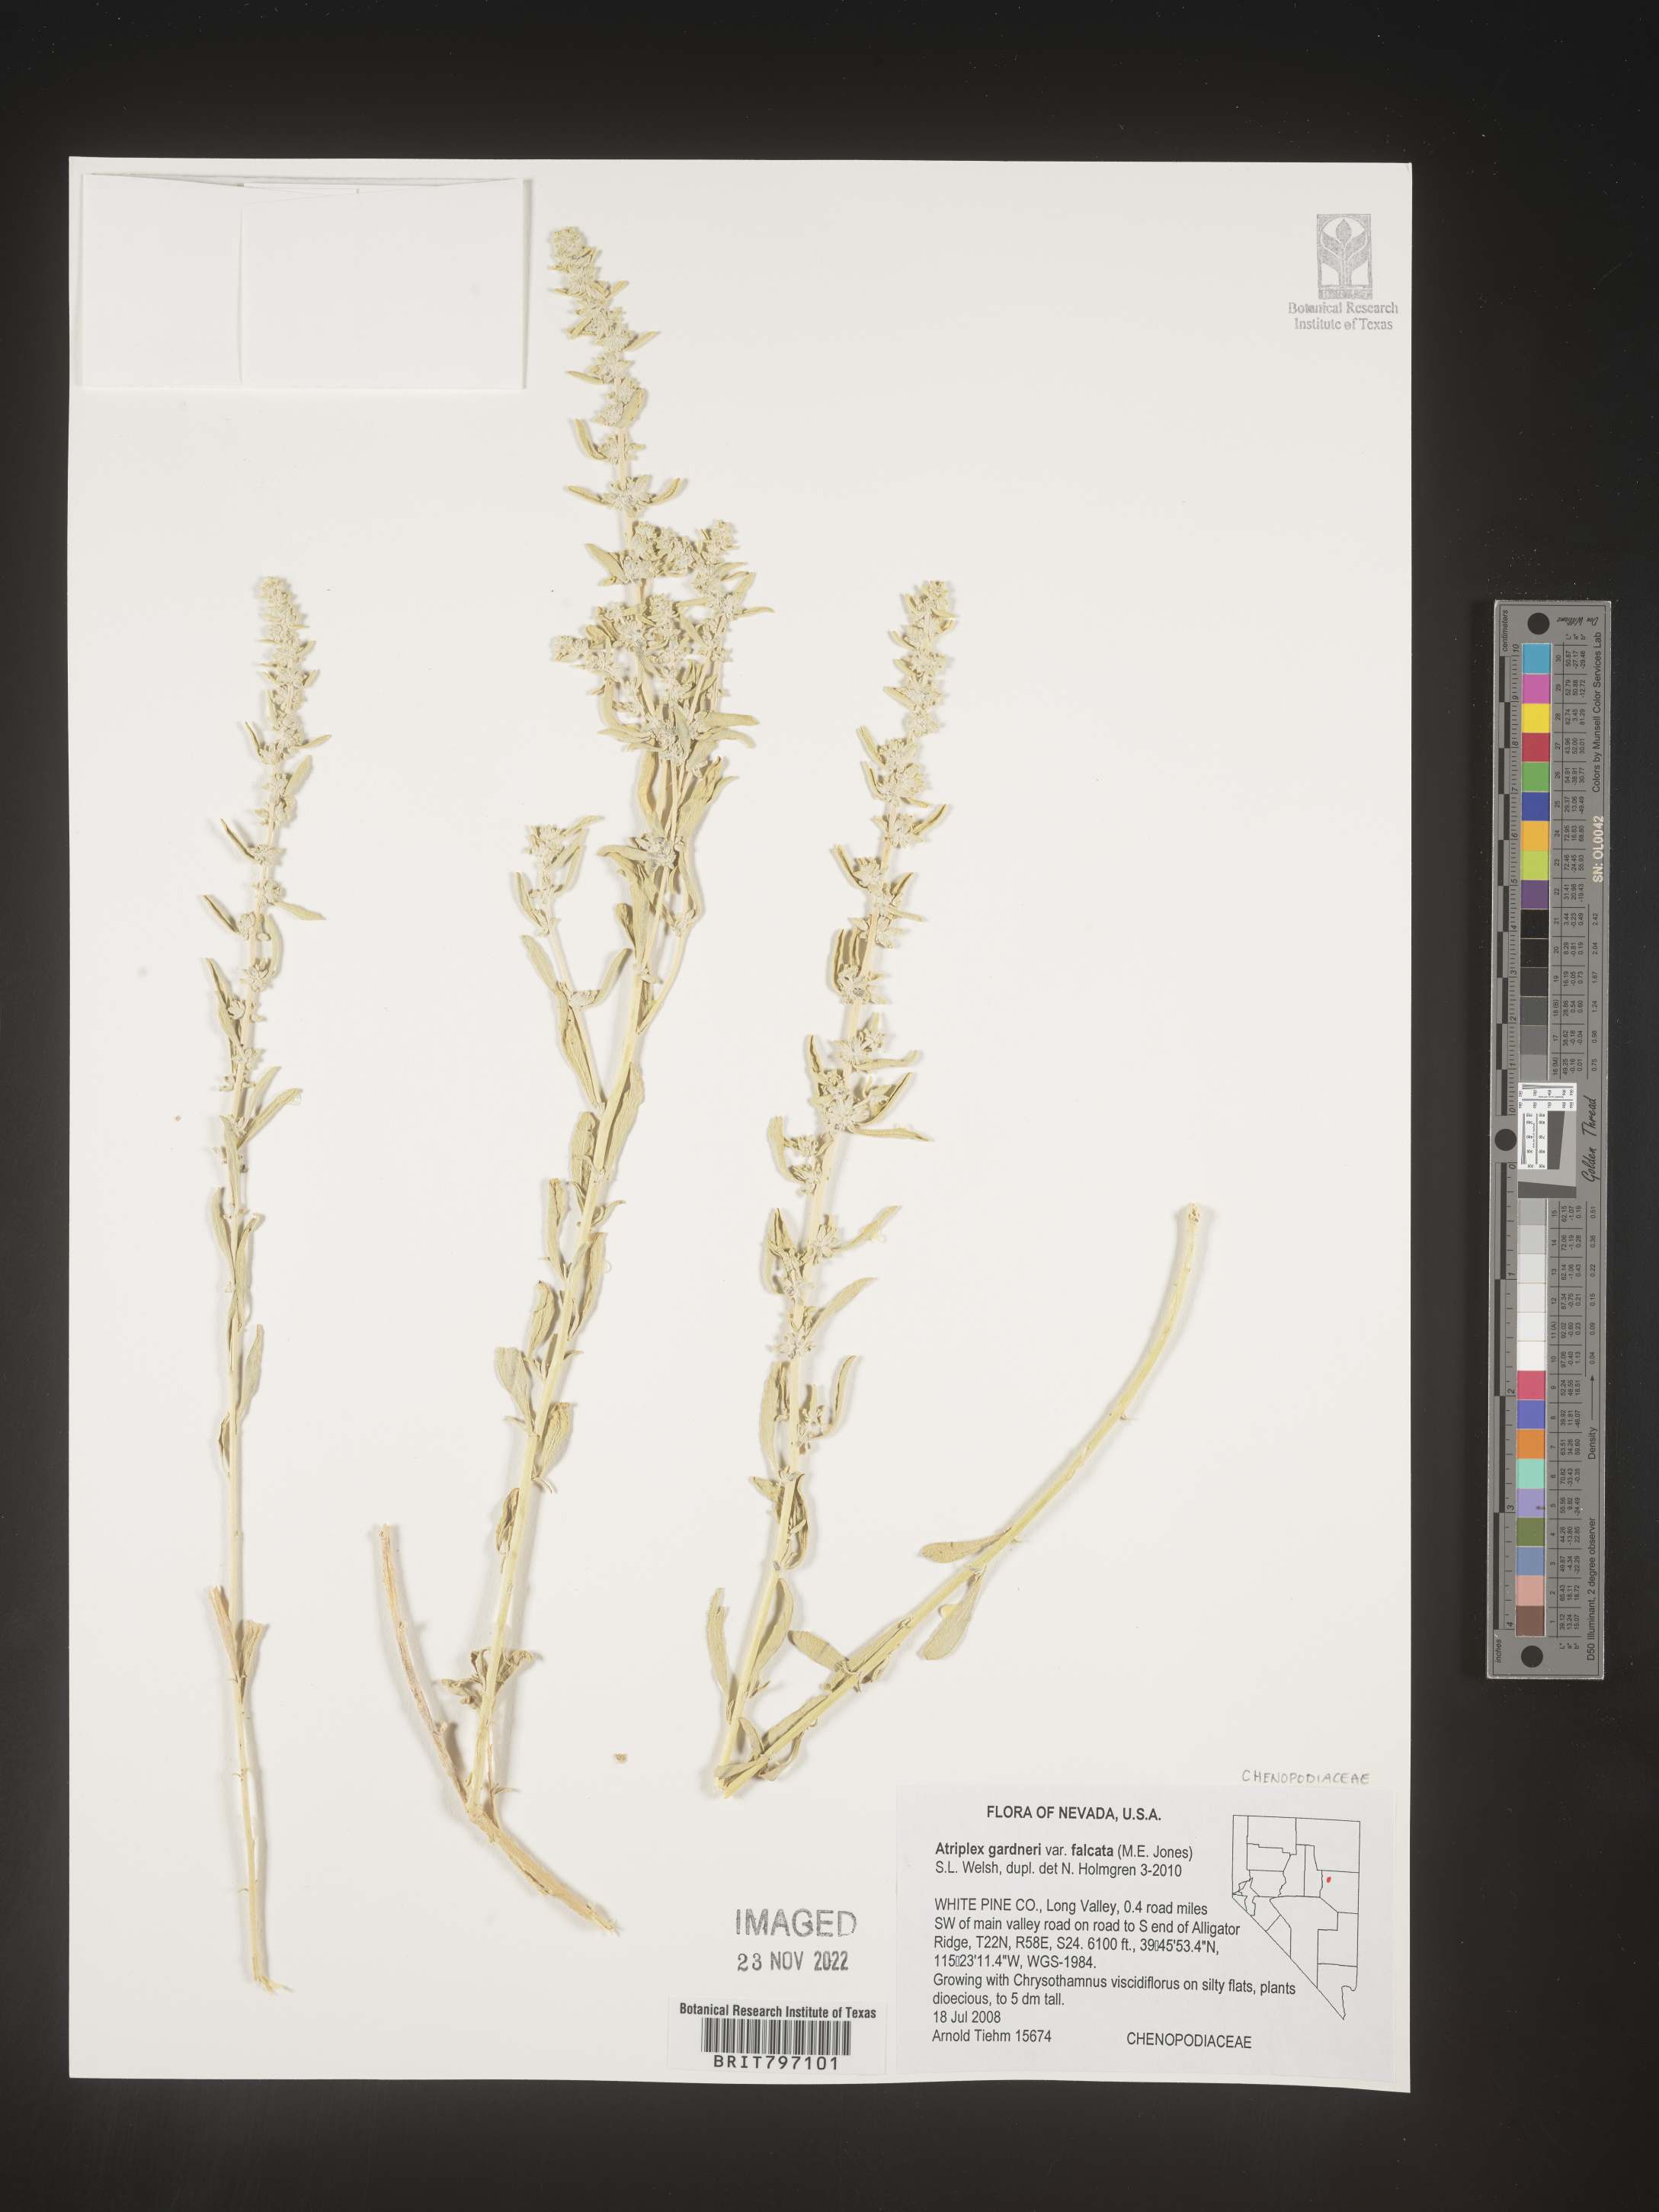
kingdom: Plantae
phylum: Tracheophyta
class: Magnoliopsida
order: Caryophyllales
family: Amaranthaceae
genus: Atriplex
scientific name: Atriplex
